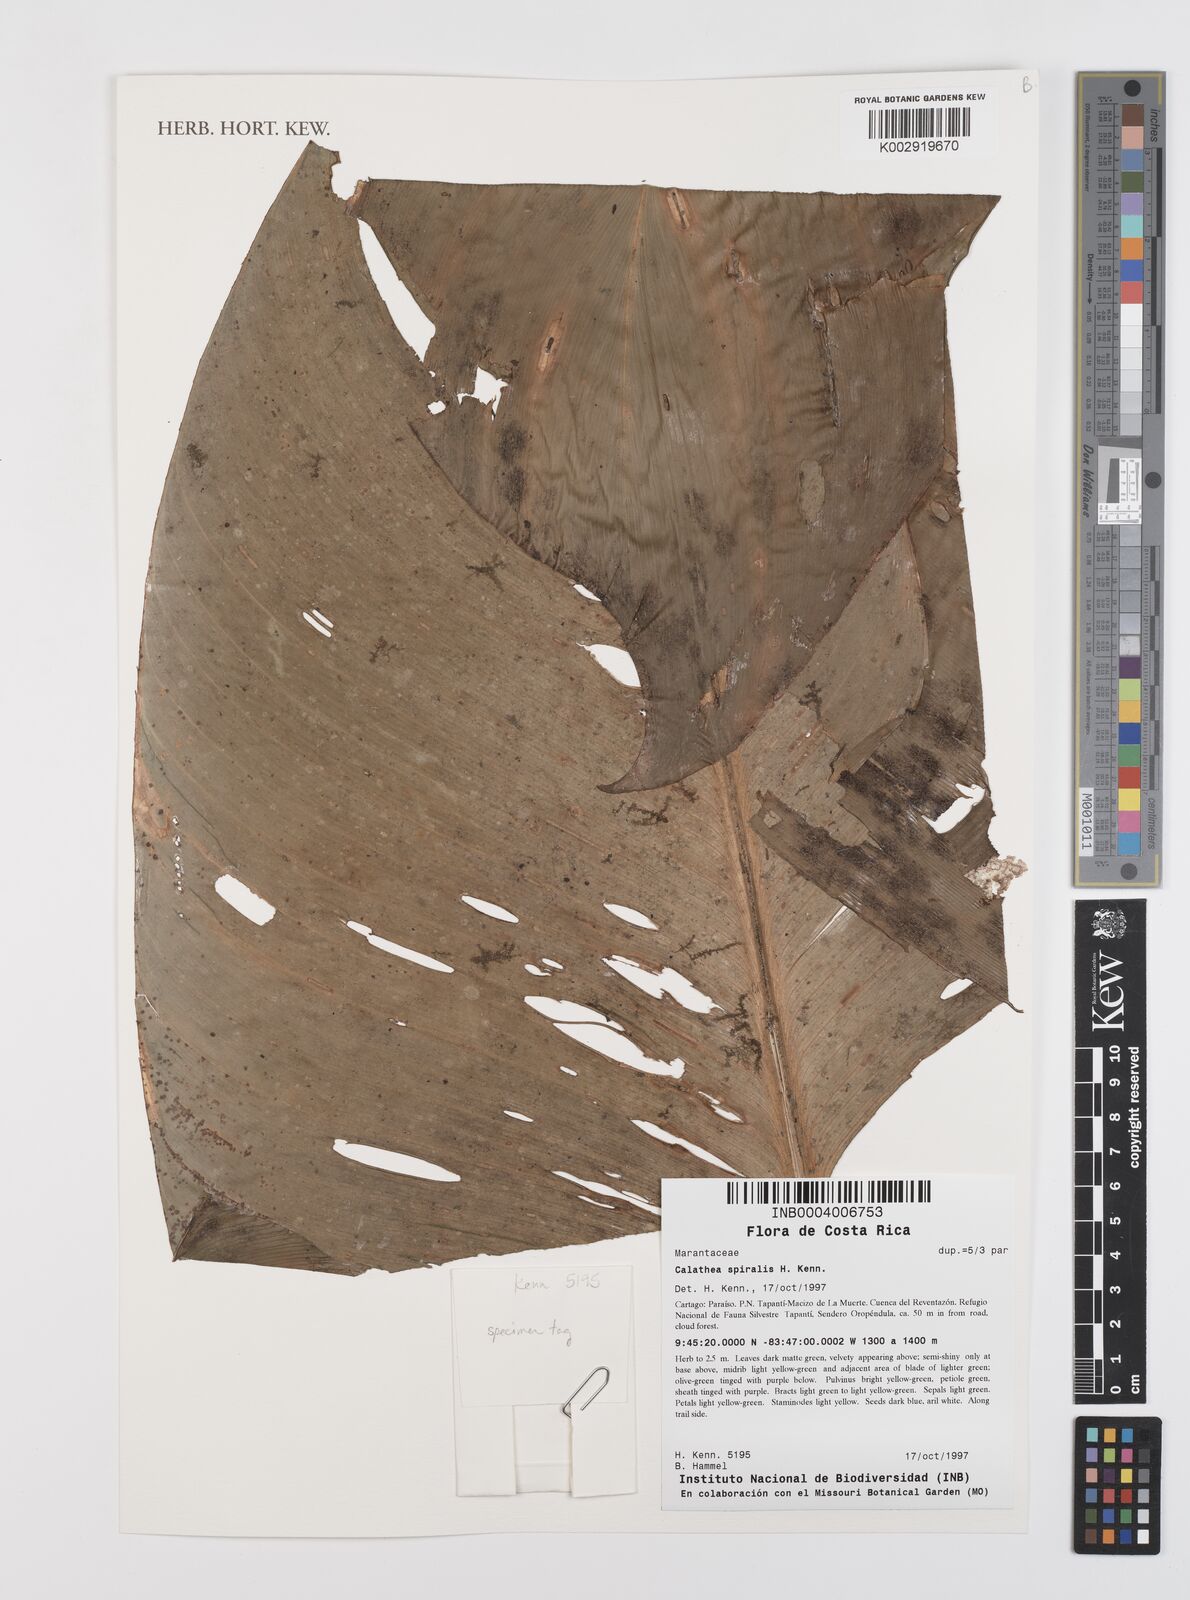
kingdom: Plantae
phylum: Tracheophyta
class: Liliopsida
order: Zingiberales
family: Marantaceae
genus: Calathea
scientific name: Calathea spiralis
